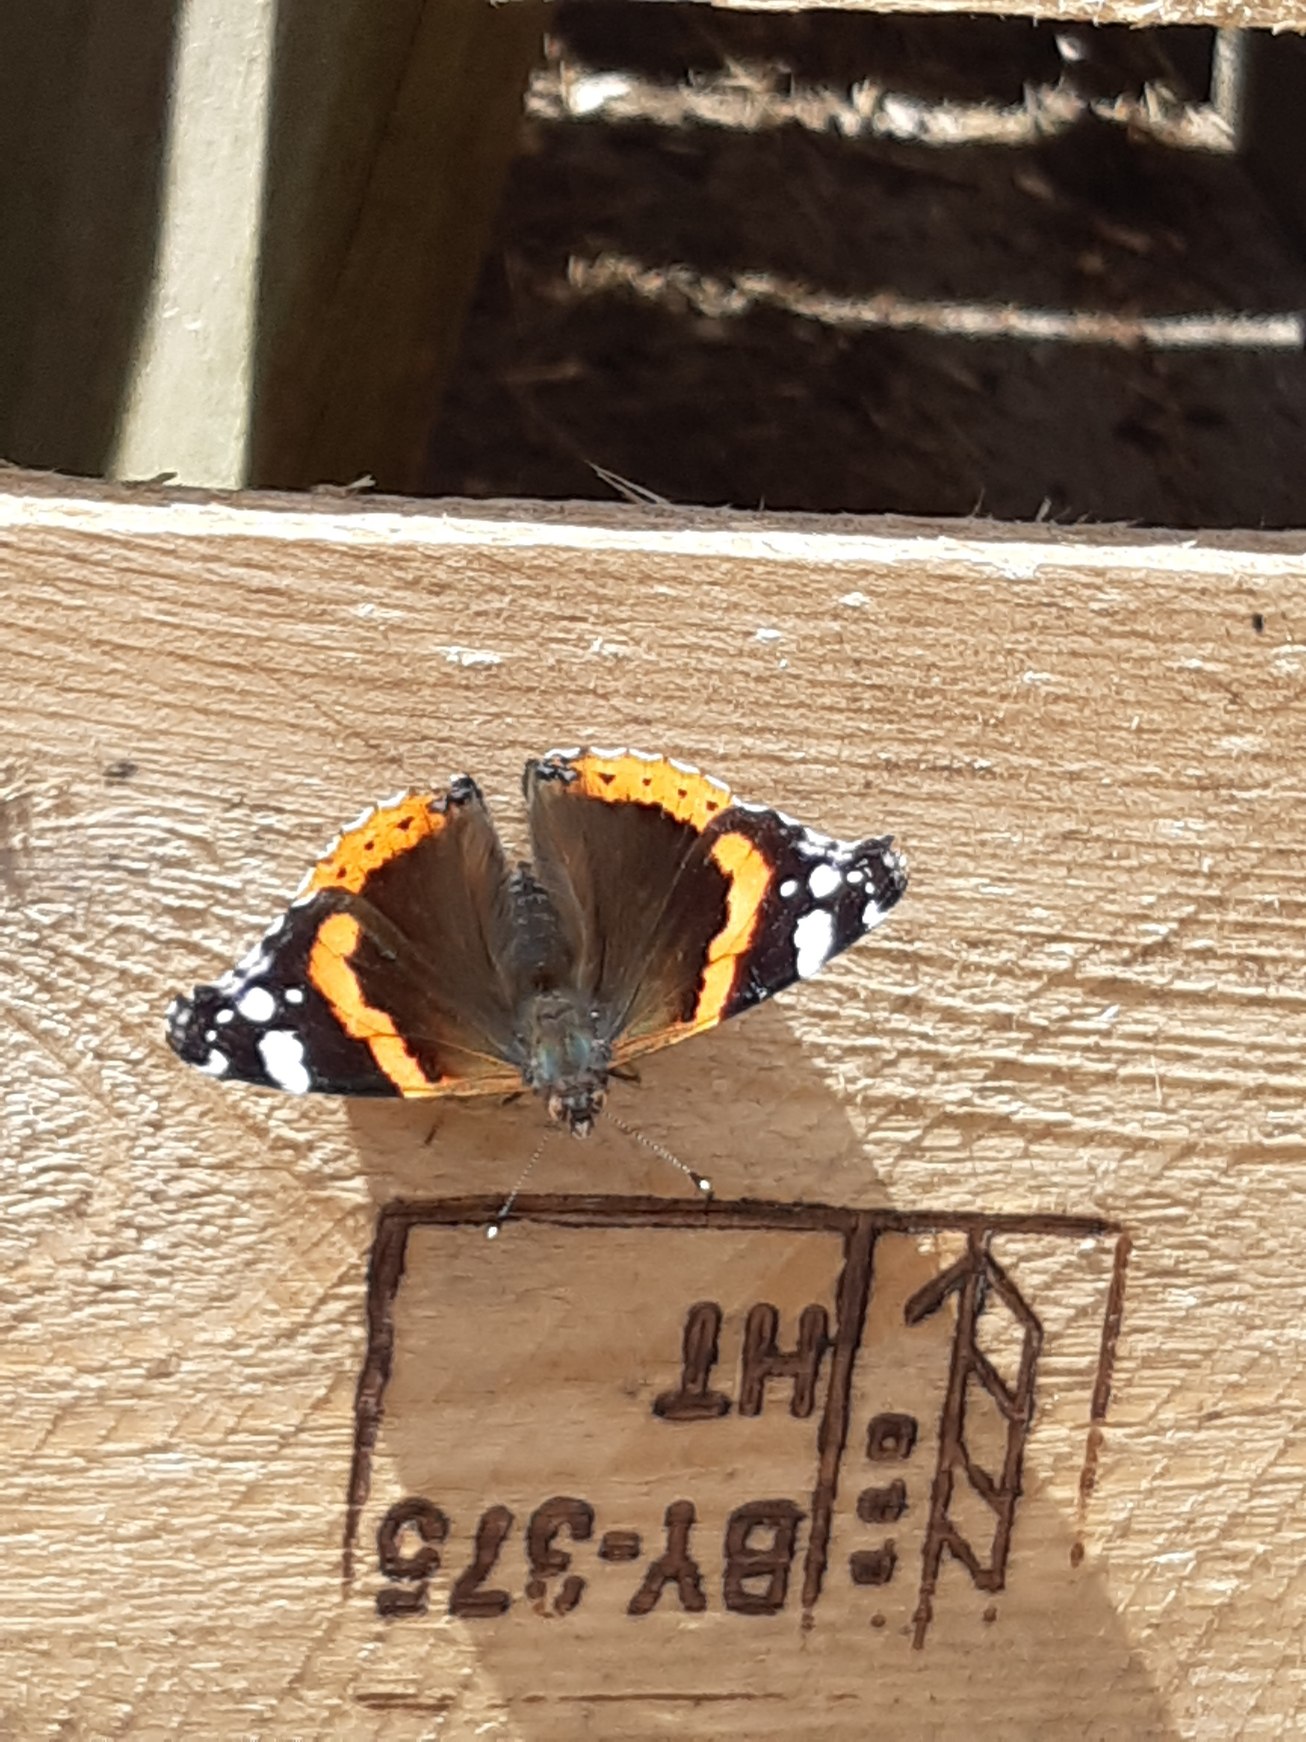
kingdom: Animalia
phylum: Arthropoda
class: Insecta
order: Lepidoptera
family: Nymphalidae
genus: Vanessa
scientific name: Vanessa atalanta
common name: Admiral
